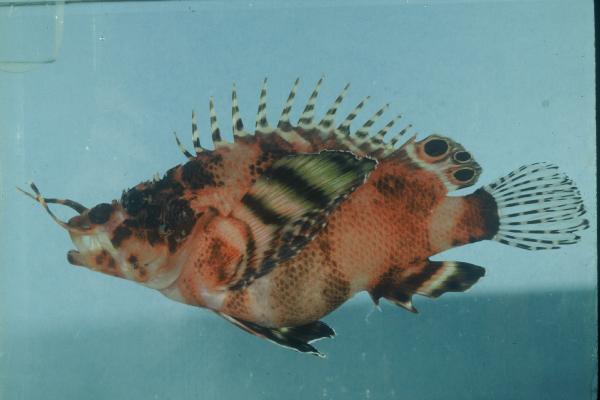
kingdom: Animalia
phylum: Chordata
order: Scorpaeniformes
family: Scorpaenidae
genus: Dendrochirus
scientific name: Dendrochirus biocellatus
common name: Twinspot lionfish
